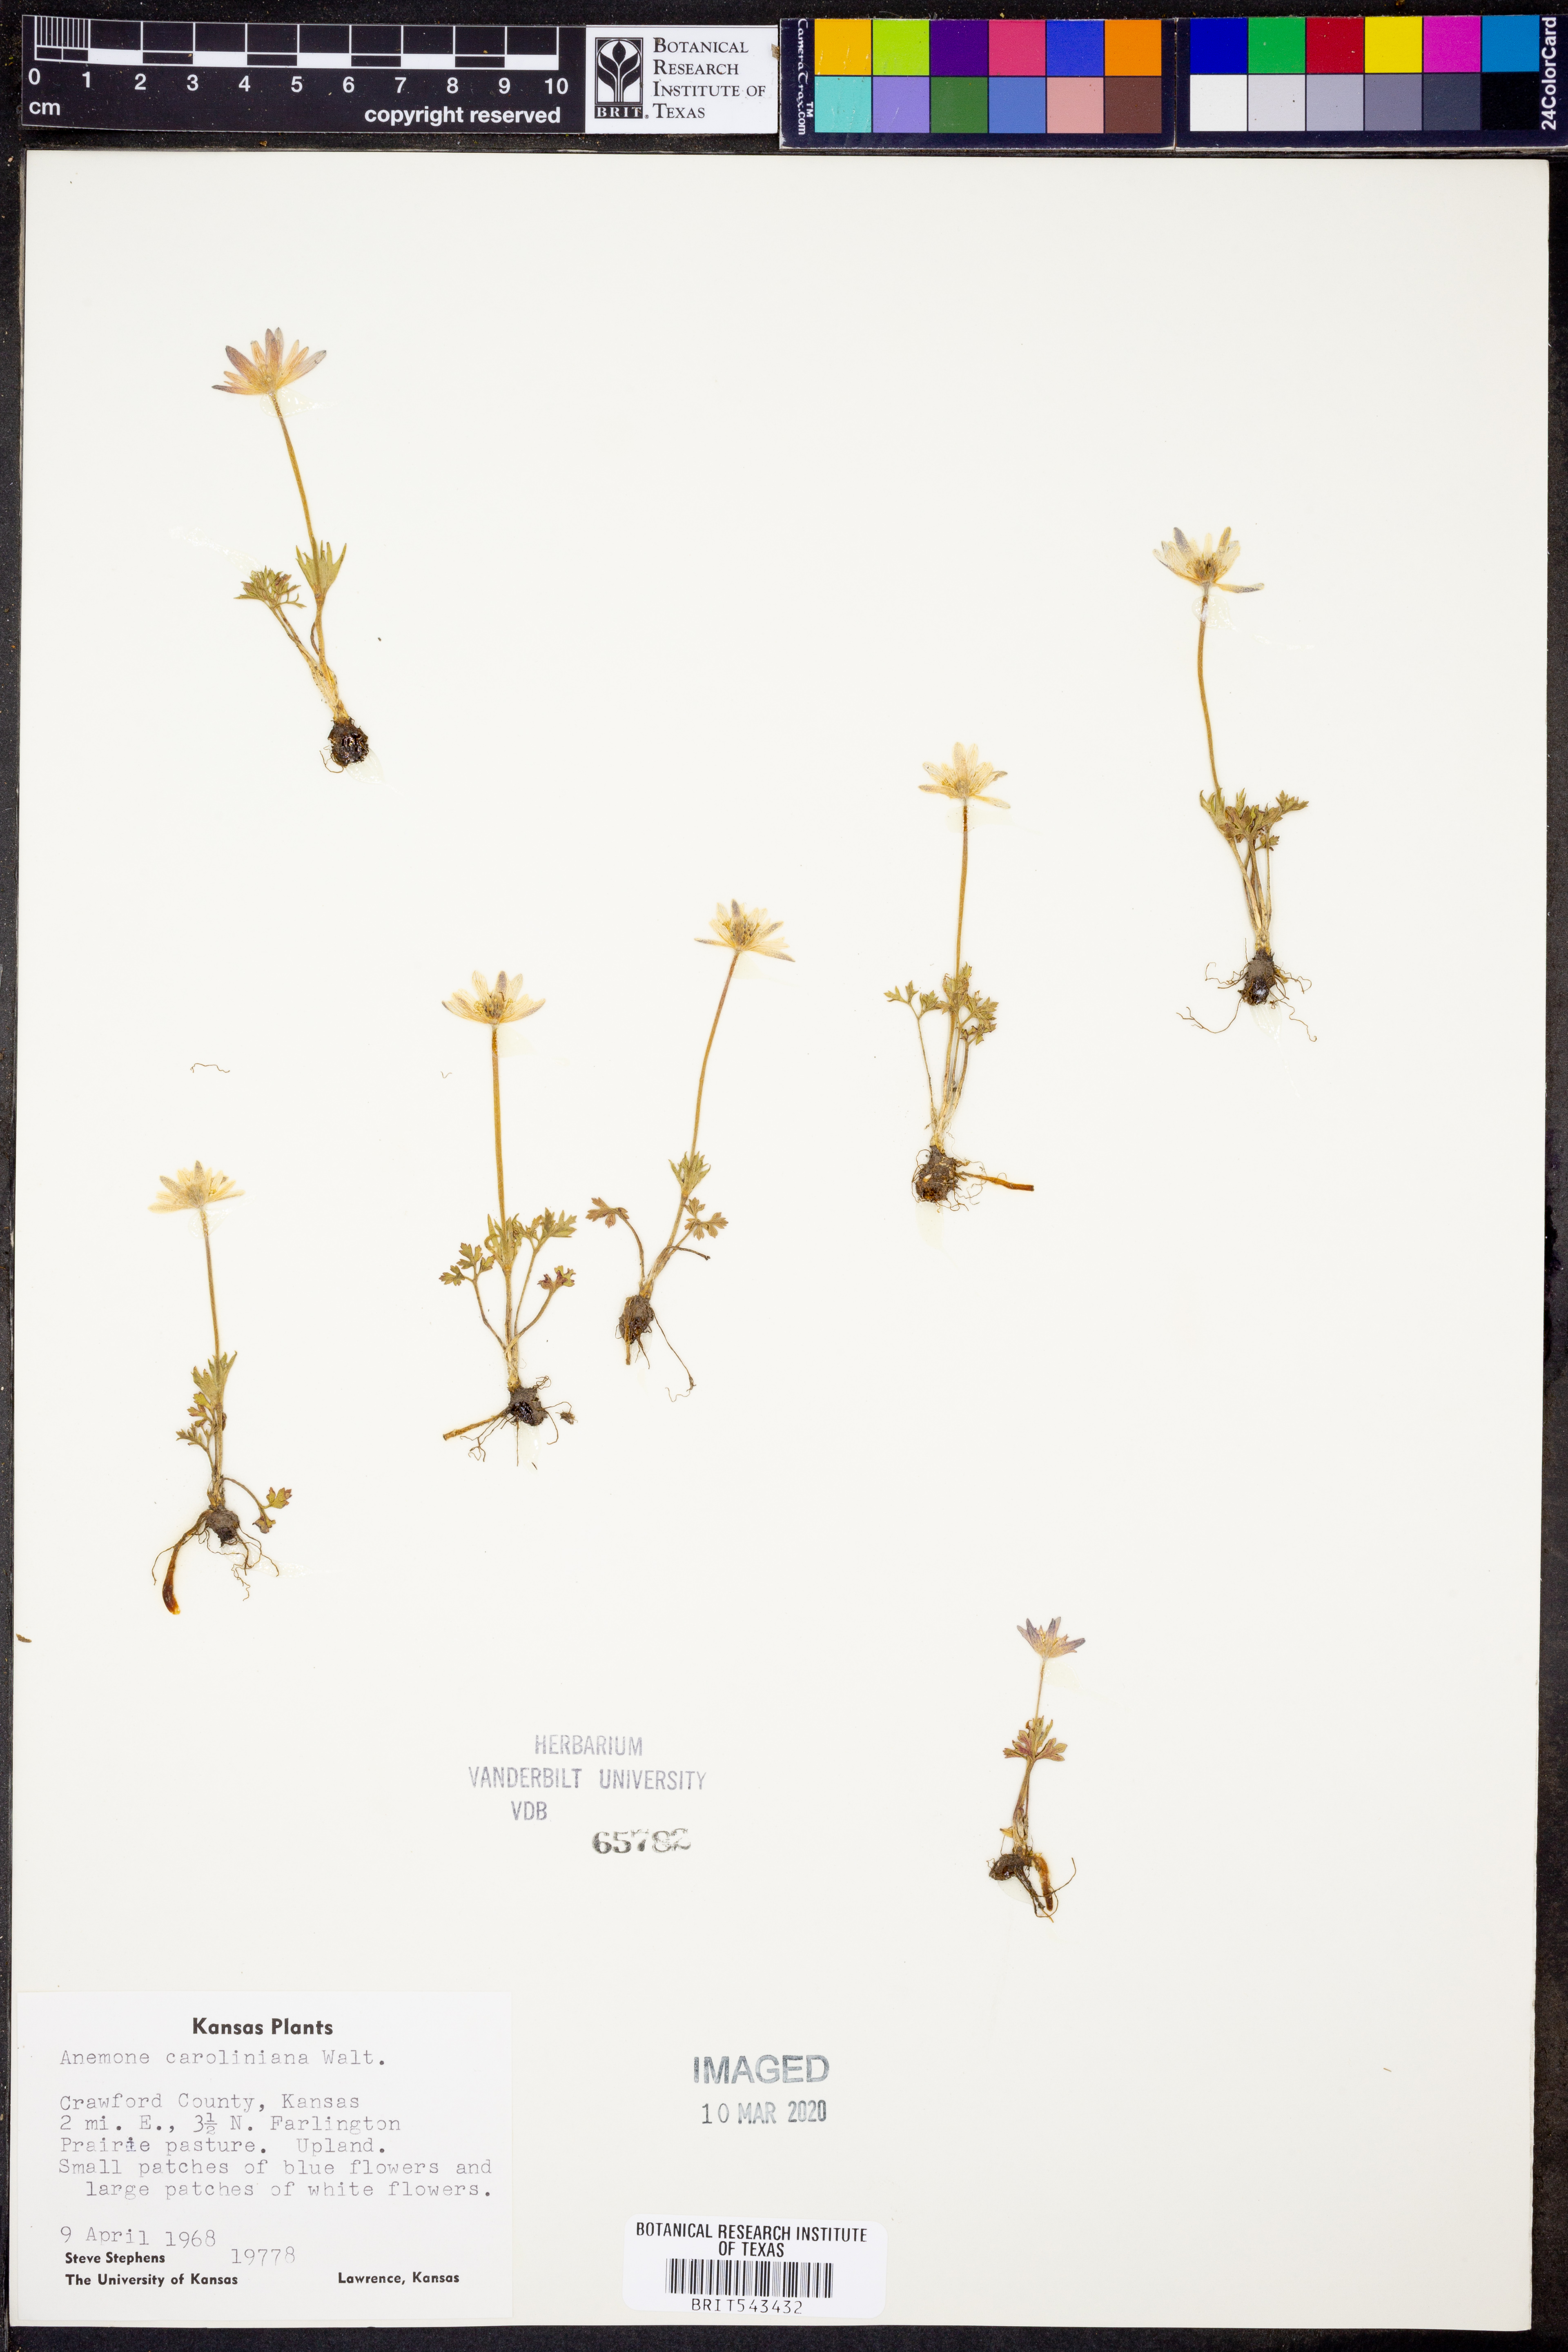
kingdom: Plantae
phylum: Tracheophyta
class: Magnoliopsida
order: Ranunculales
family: Ranunculaceae
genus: Anemone
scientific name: Anemone caroliniana
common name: Carolina anemone
